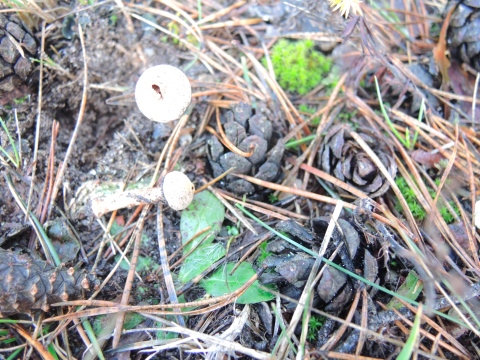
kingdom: Fungi
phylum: Basidiomycota
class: Agaricomycetes
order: Agaricales
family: Agaricaceae
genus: Tulostoma
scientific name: Tulostoma fimbriatum
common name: frynset stilkbovist
